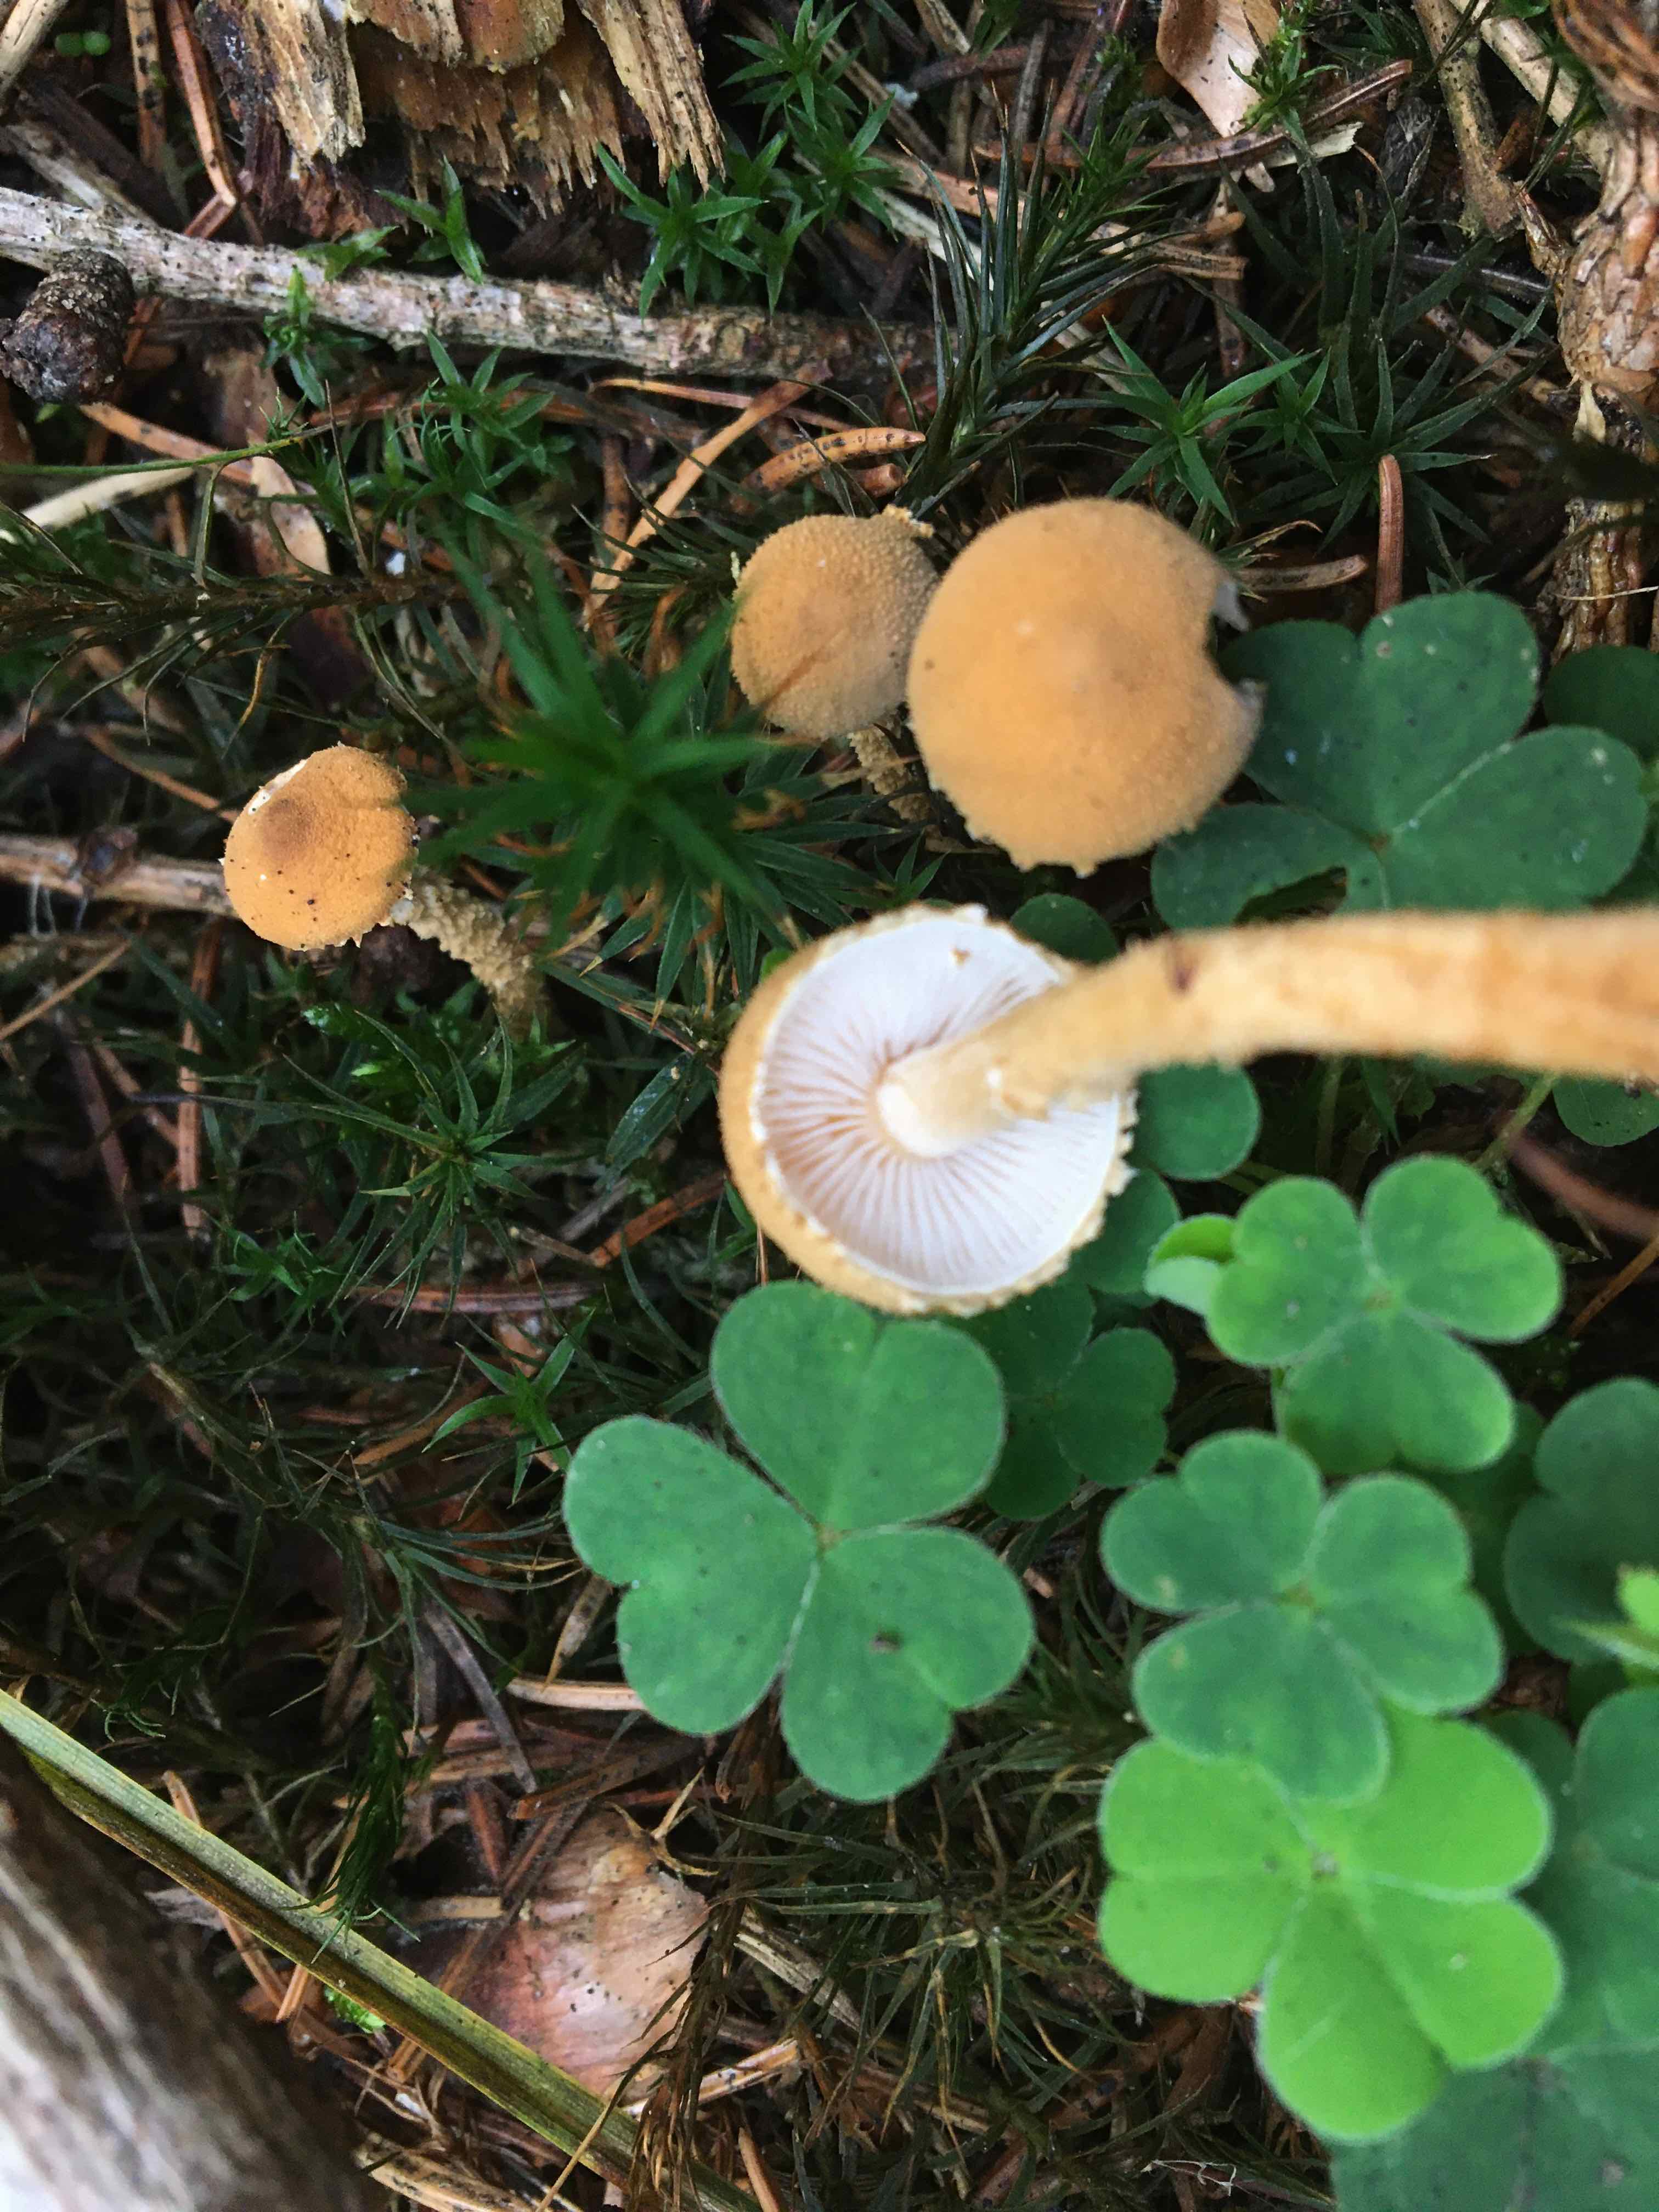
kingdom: Fungi
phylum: Basidiomycota
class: Agaricomycetes
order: Agaricales
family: Tricholomataceae
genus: Cystoderma
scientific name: Cystoderma amianthinum
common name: okkergul grynhat
